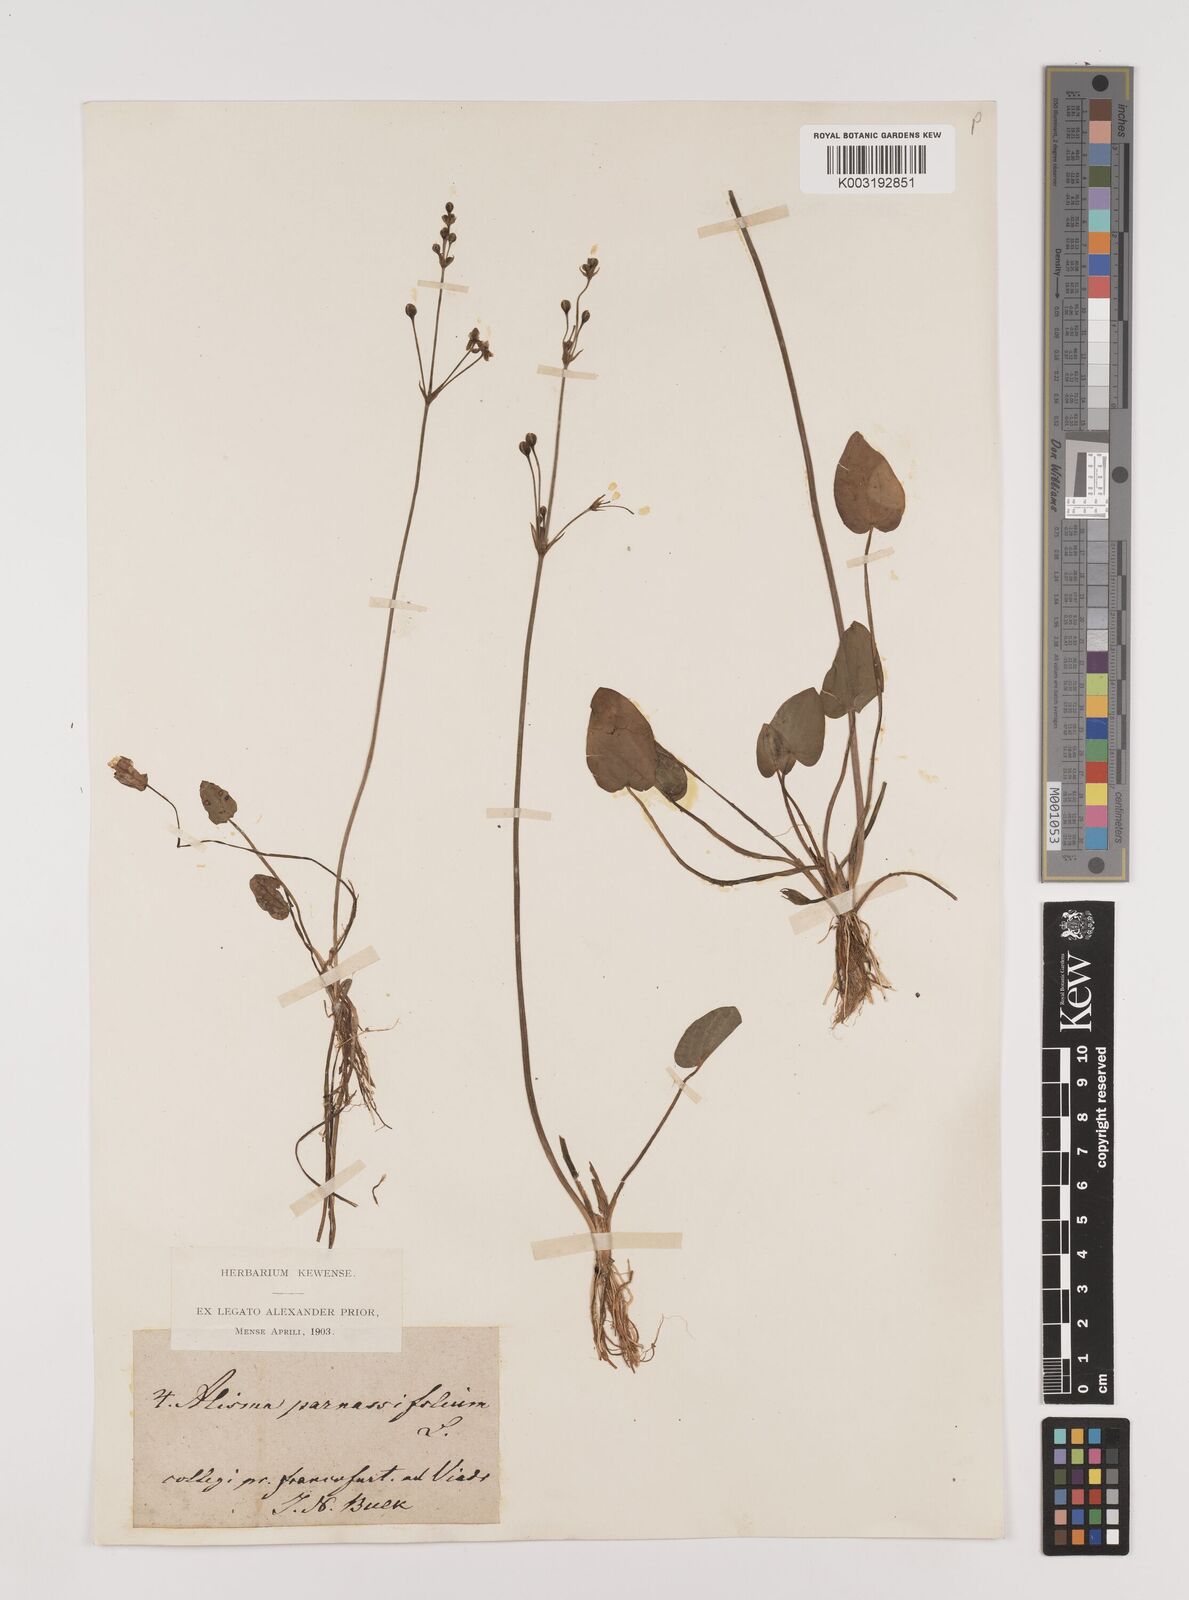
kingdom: Plantae
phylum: Tracheophyta
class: Liliopsida
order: Alismatales
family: Alismataceae
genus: Caldesia
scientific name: Caldesia parnassifolia
